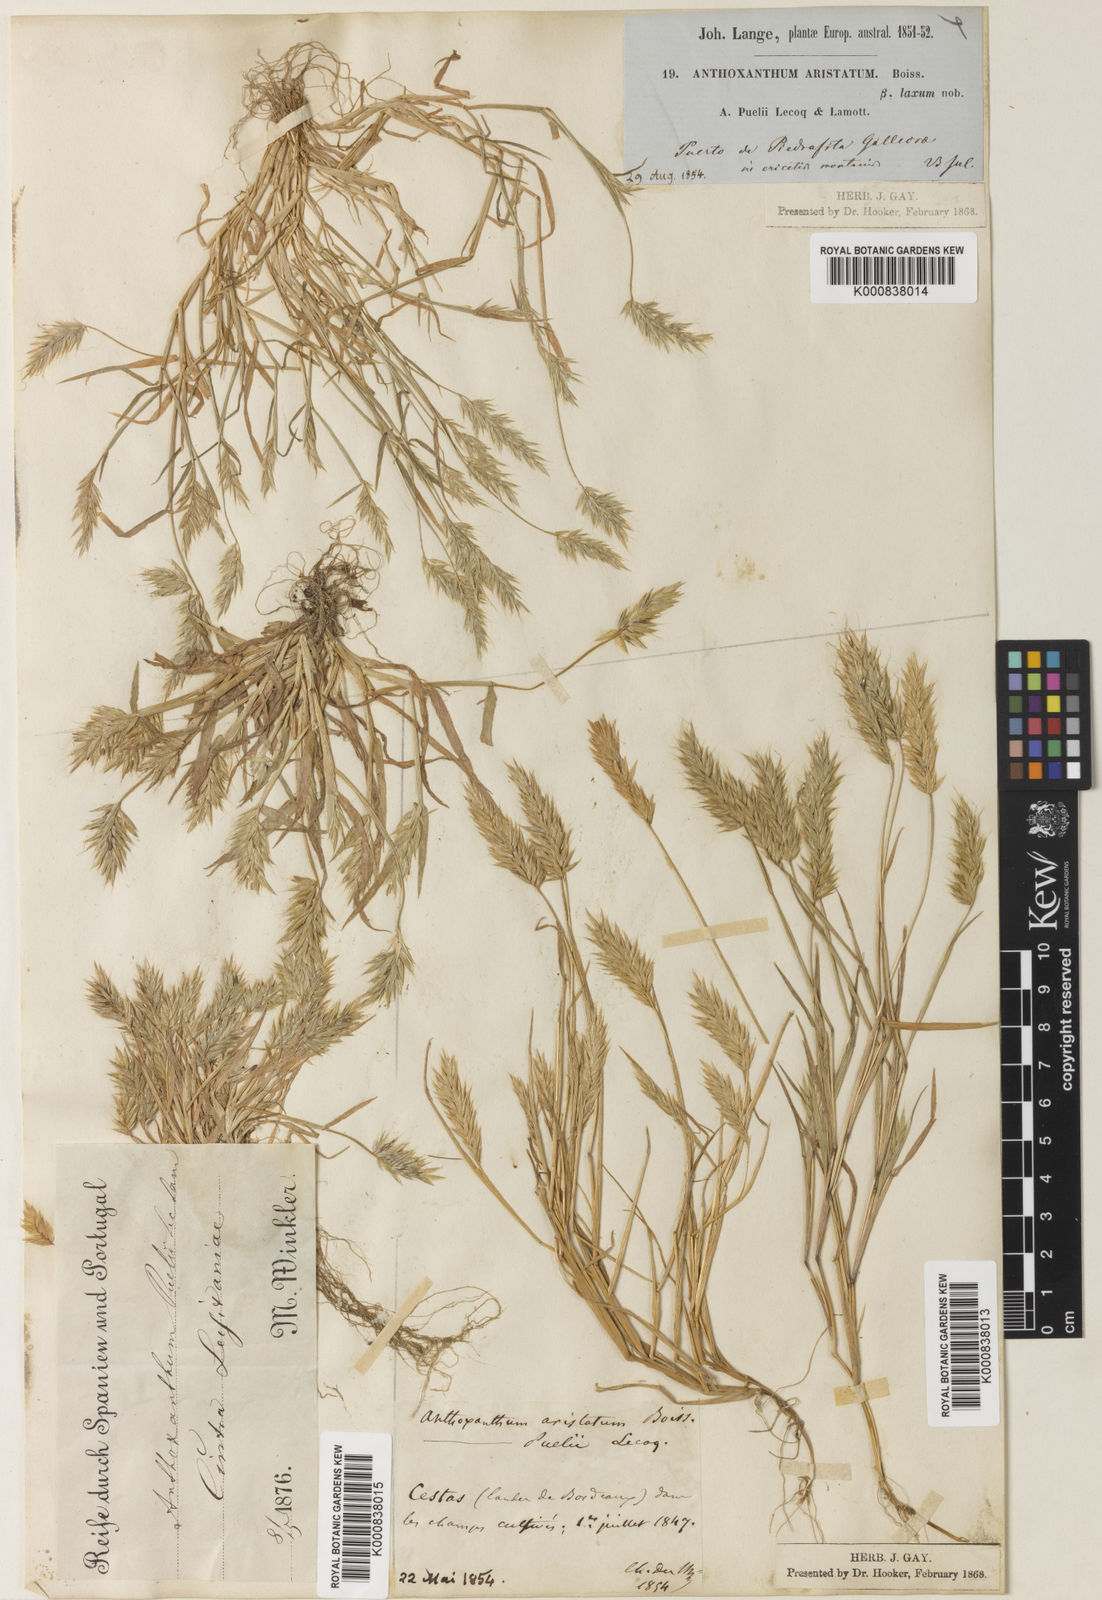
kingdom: Plantae
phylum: Tracheophyta
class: Liliopsida
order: Poales
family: Poaceae
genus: Anthoxanthum
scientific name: Anthoxanthum aristatum
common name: Annual vernal-grass
